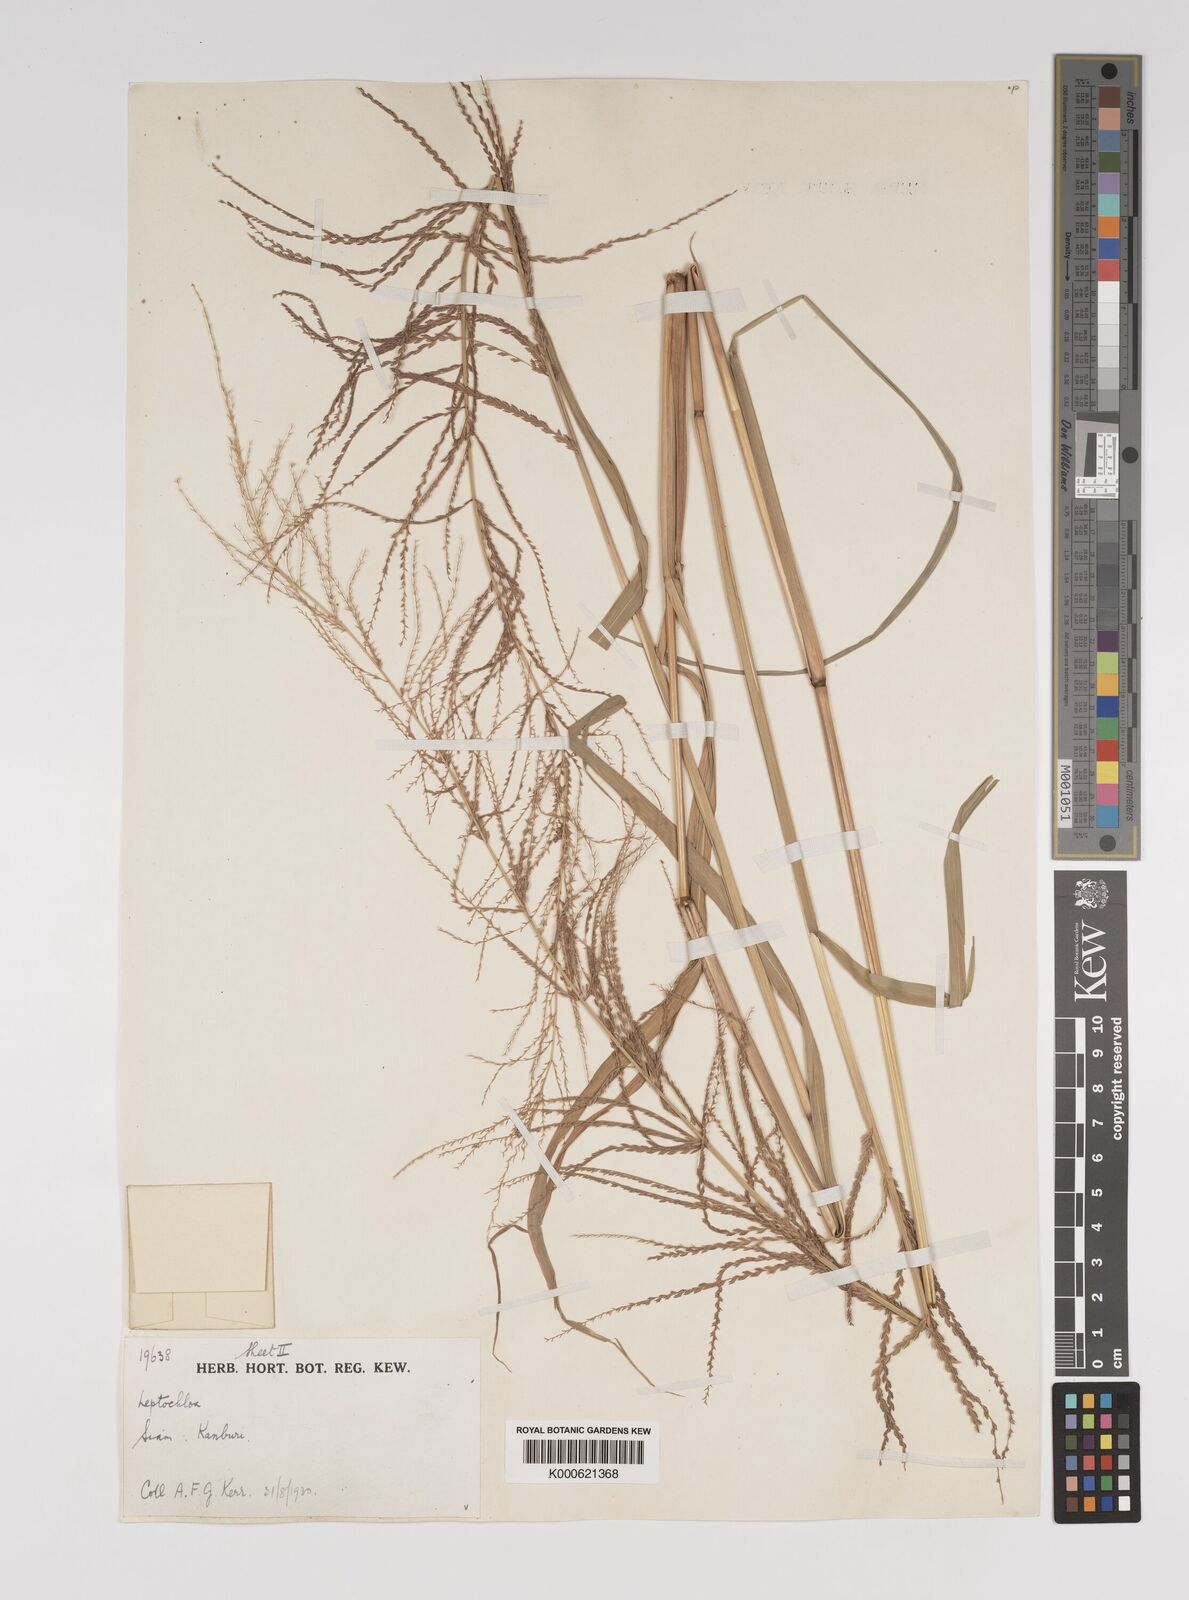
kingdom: Plantae
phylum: Tracheophyta
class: Liliopsida
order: Poales
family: Poaceae
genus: Leptochloa
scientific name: Leptochloa chinensis
